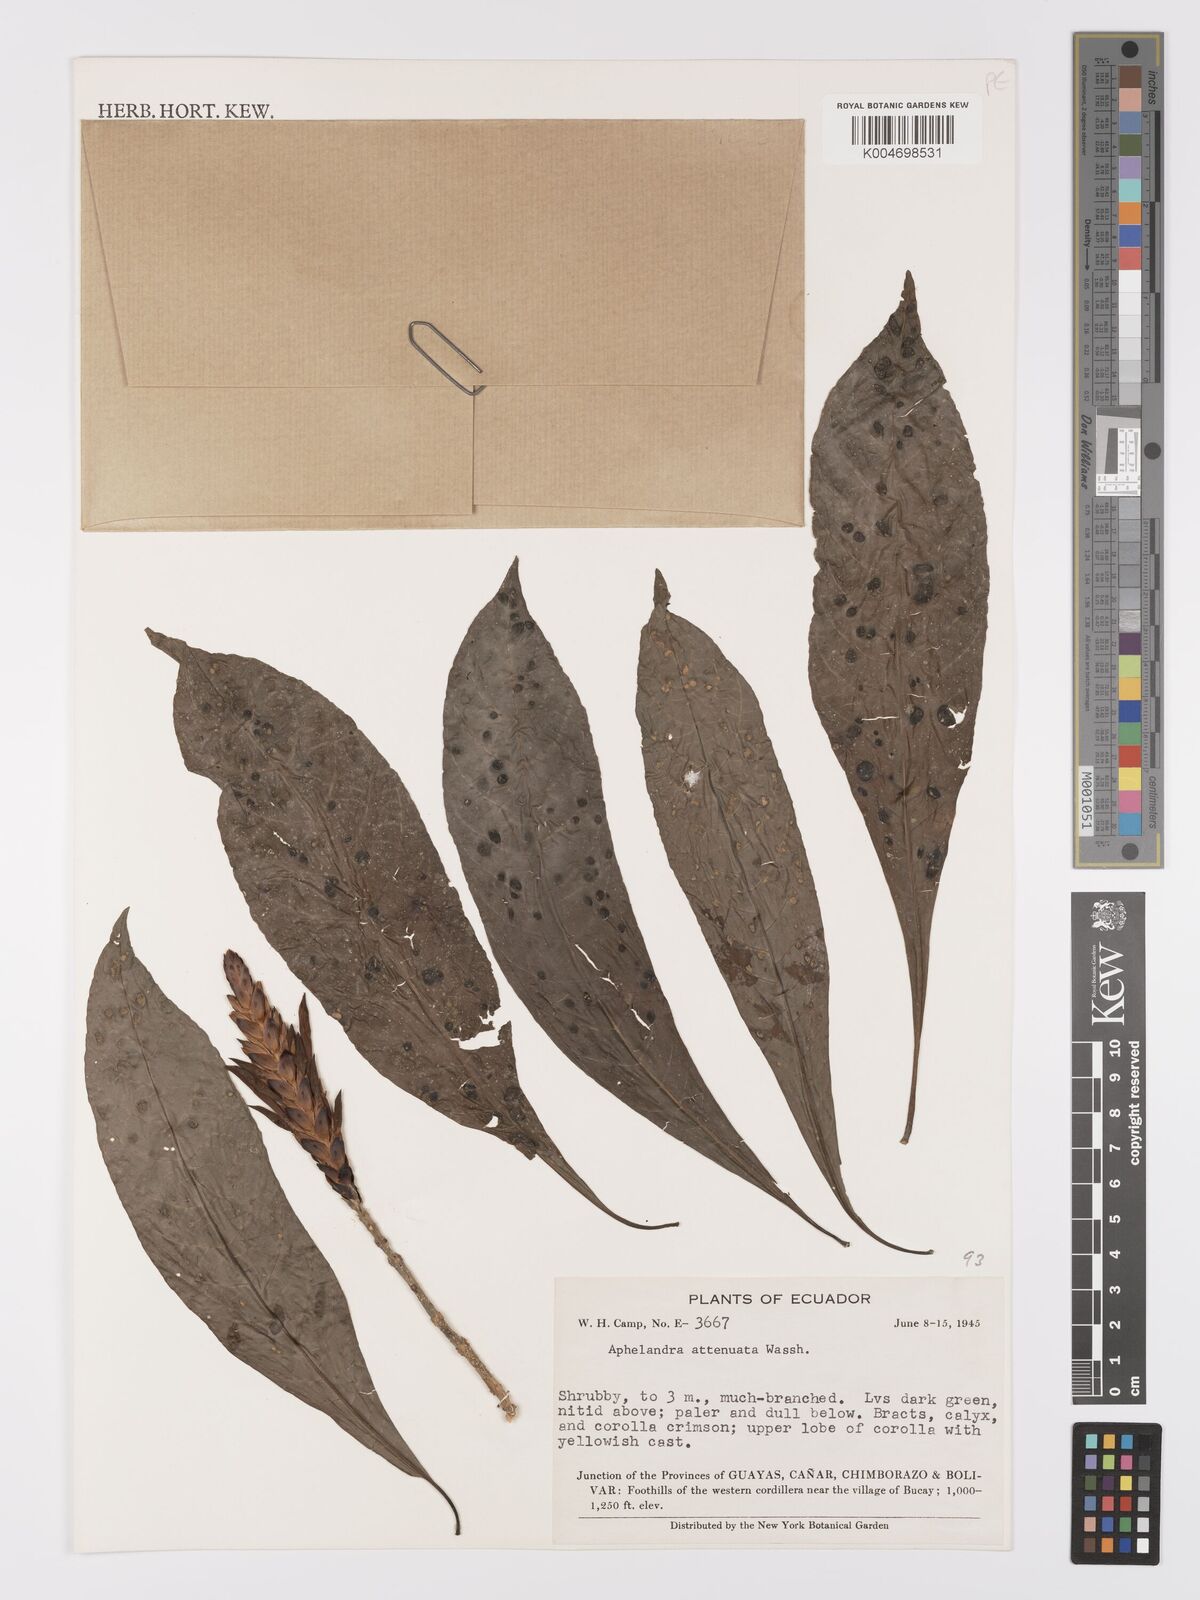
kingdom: Plantae
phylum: Tracheophyta
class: Magnoliopsida
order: Lamiales
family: Acanthaceae
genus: Aphelandra
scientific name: Aphelandra attenuata
